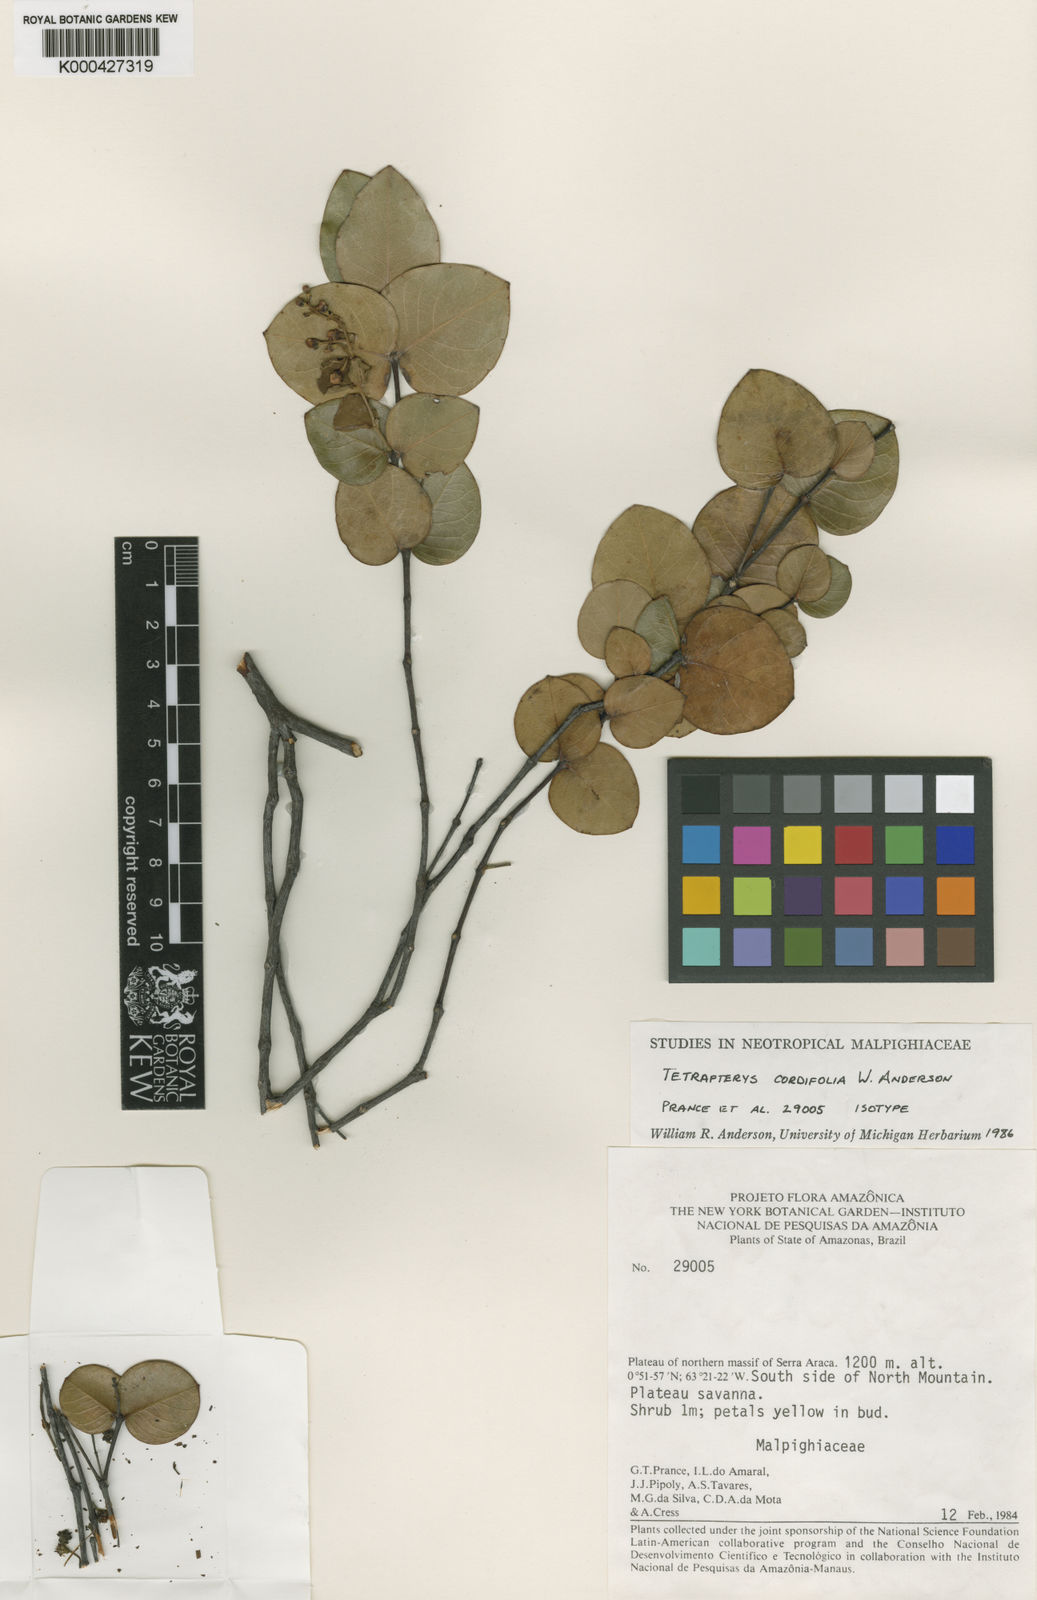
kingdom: Plantae
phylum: Tracheophyta
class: Magnoliopsida
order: Malpighiales
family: Malpighiaceae
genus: Tetrapterys
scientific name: Tetrapterys cordifolia
